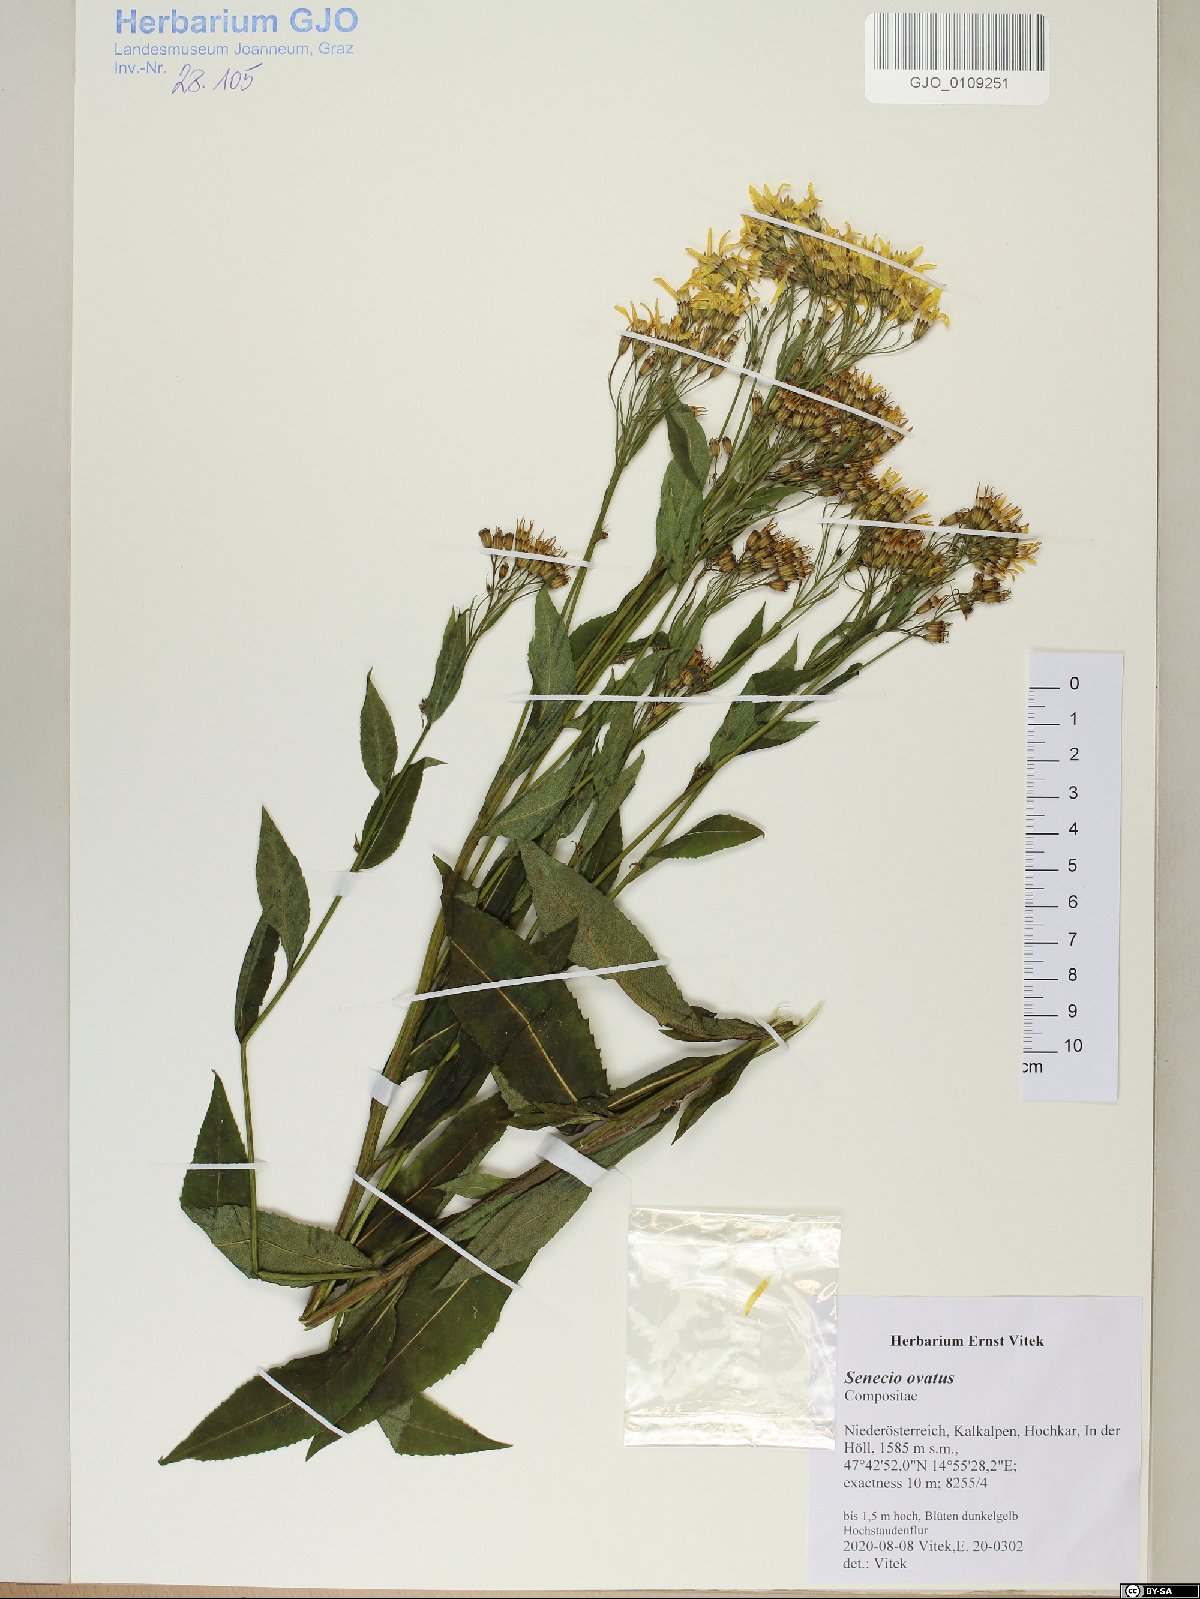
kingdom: Plantae
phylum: Tracheophyta
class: Magnoliopsida
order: Asterales
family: Asteraceae
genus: Senecio
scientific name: Senecio ovatus
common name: Wood ragwort
